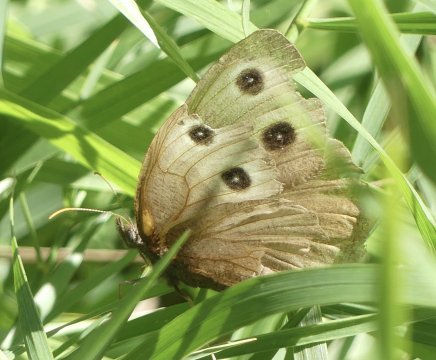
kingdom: Animalia
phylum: Arthropoda
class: Insecta
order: Lepidoptera
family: Nymphalidae
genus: Cercyonis
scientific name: Cercyonis pegala
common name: Common Wood-Nymph
